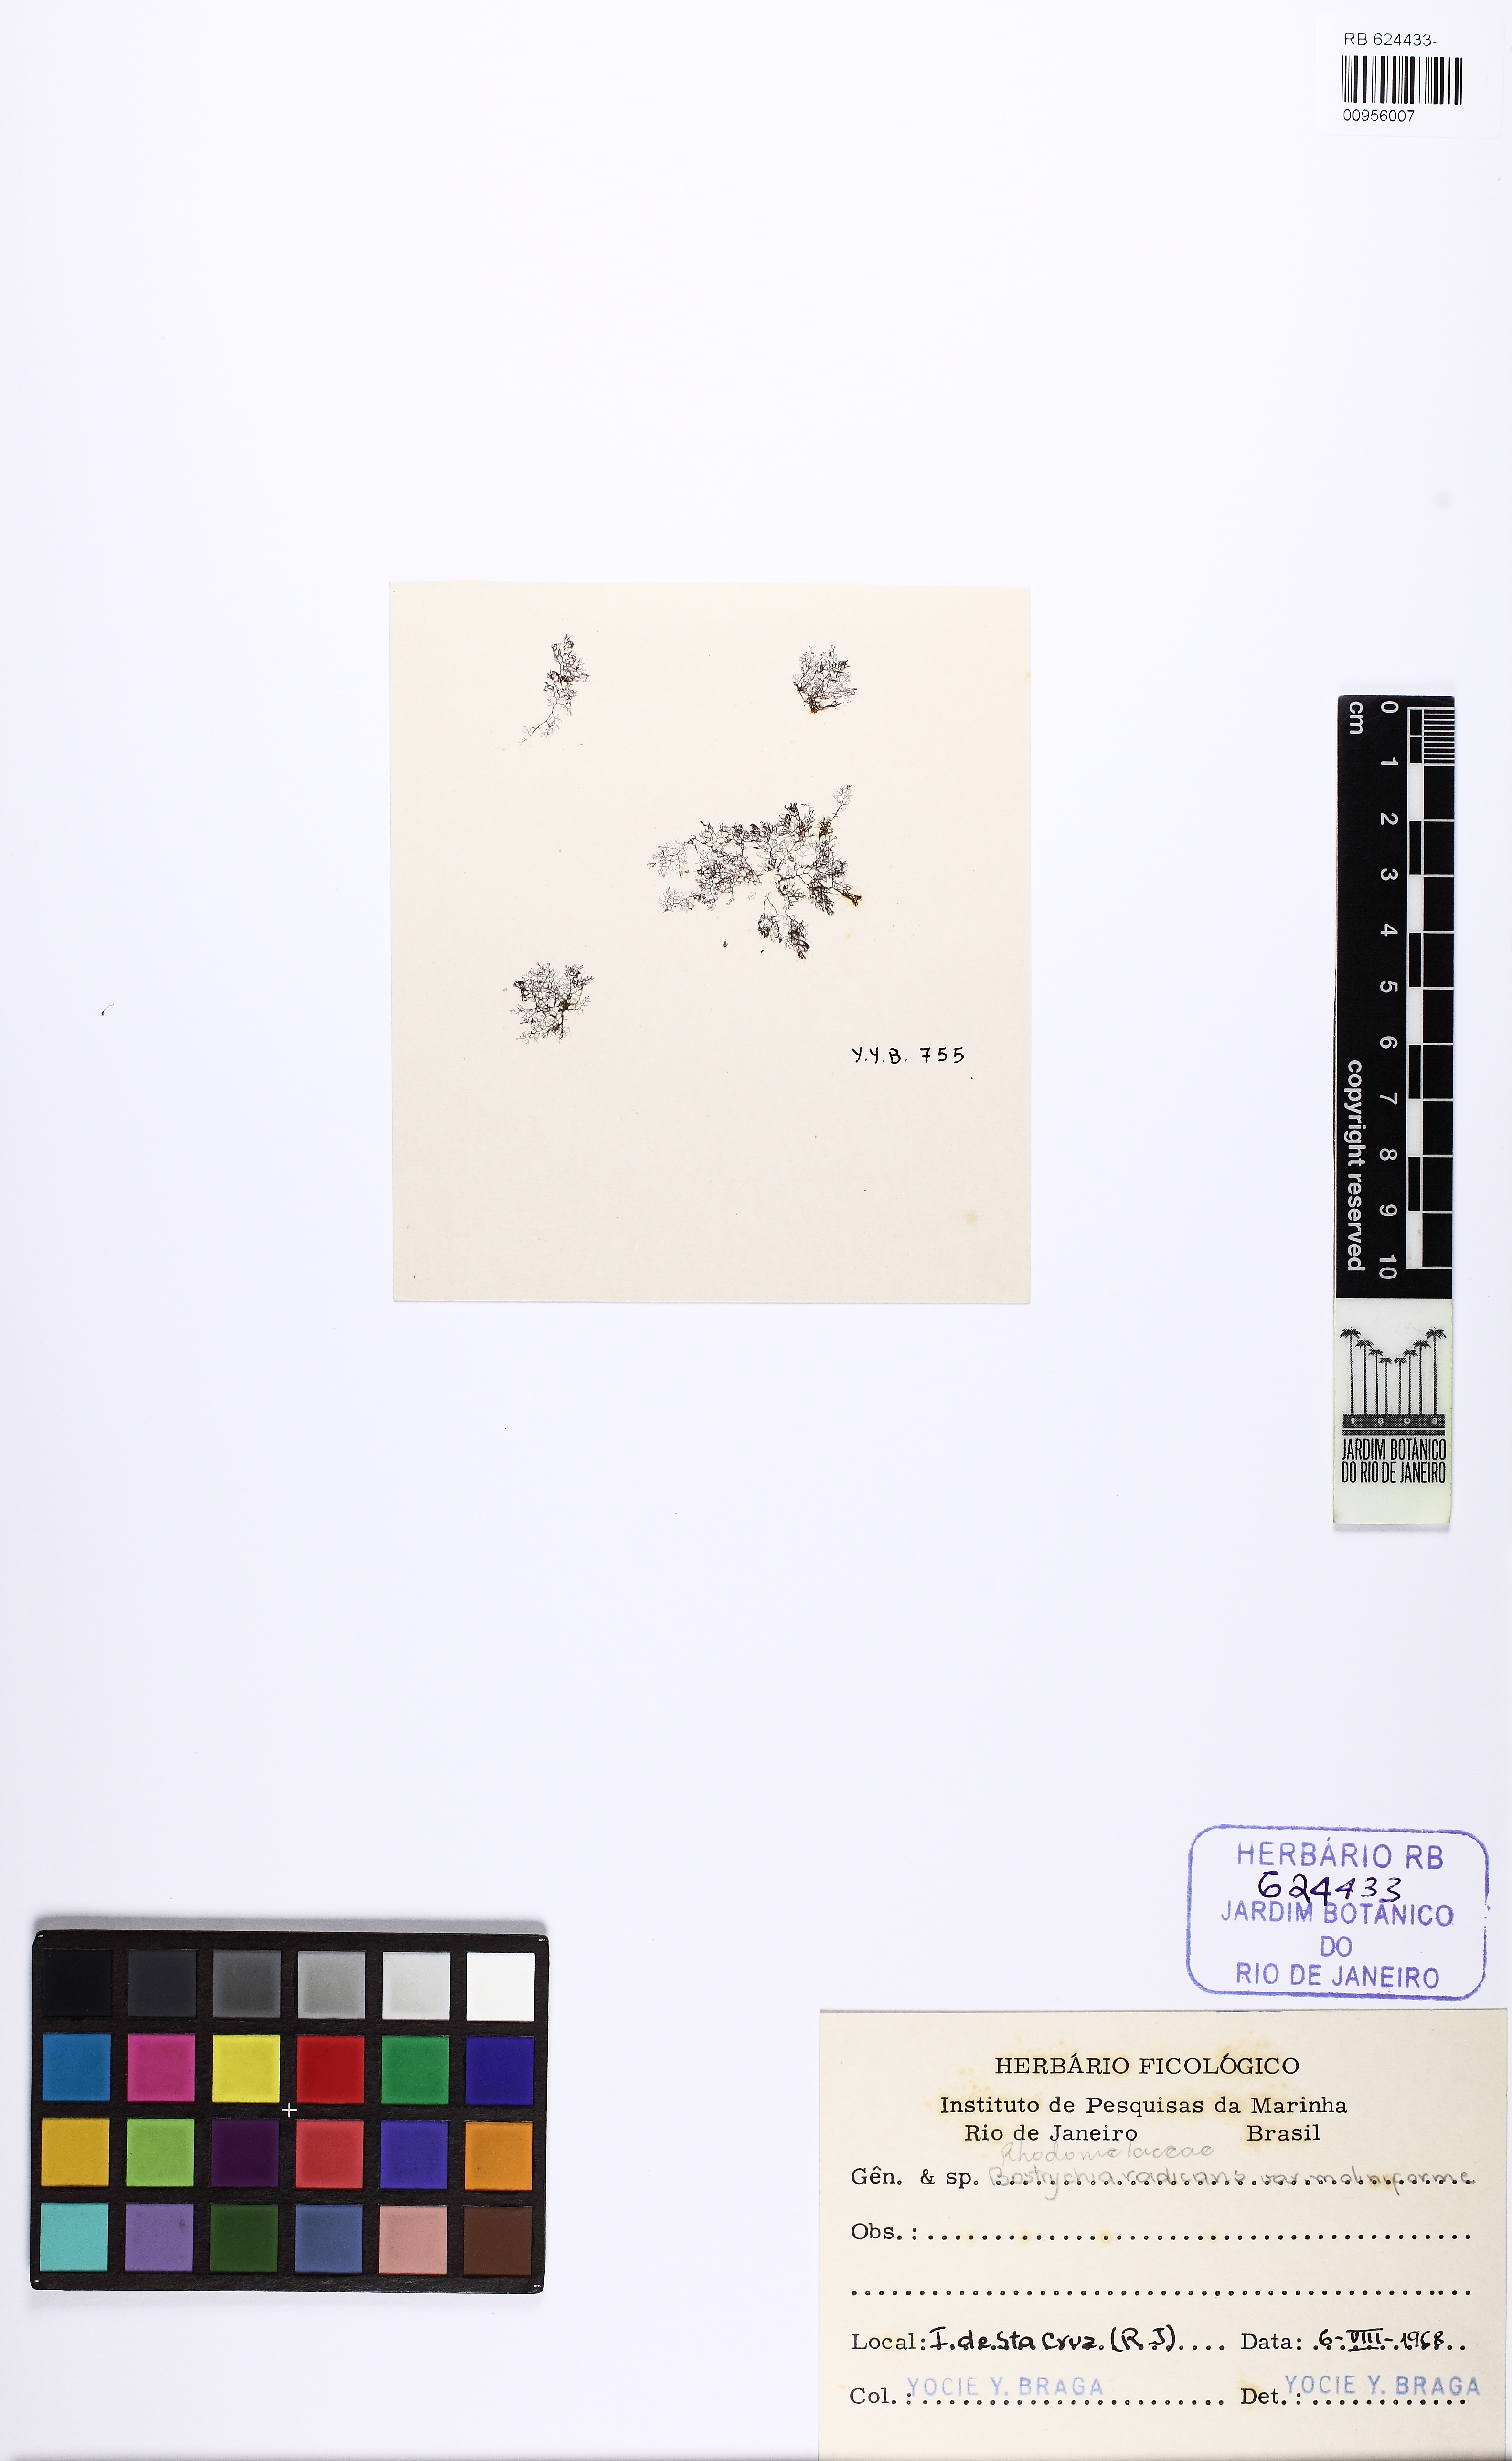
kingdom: Plantae
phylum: Rhodophyta
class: Florideophyceae
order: Ceramiales
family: Rhodomelaceae
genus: Bostrychia
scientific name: Bostrychia moritziana
